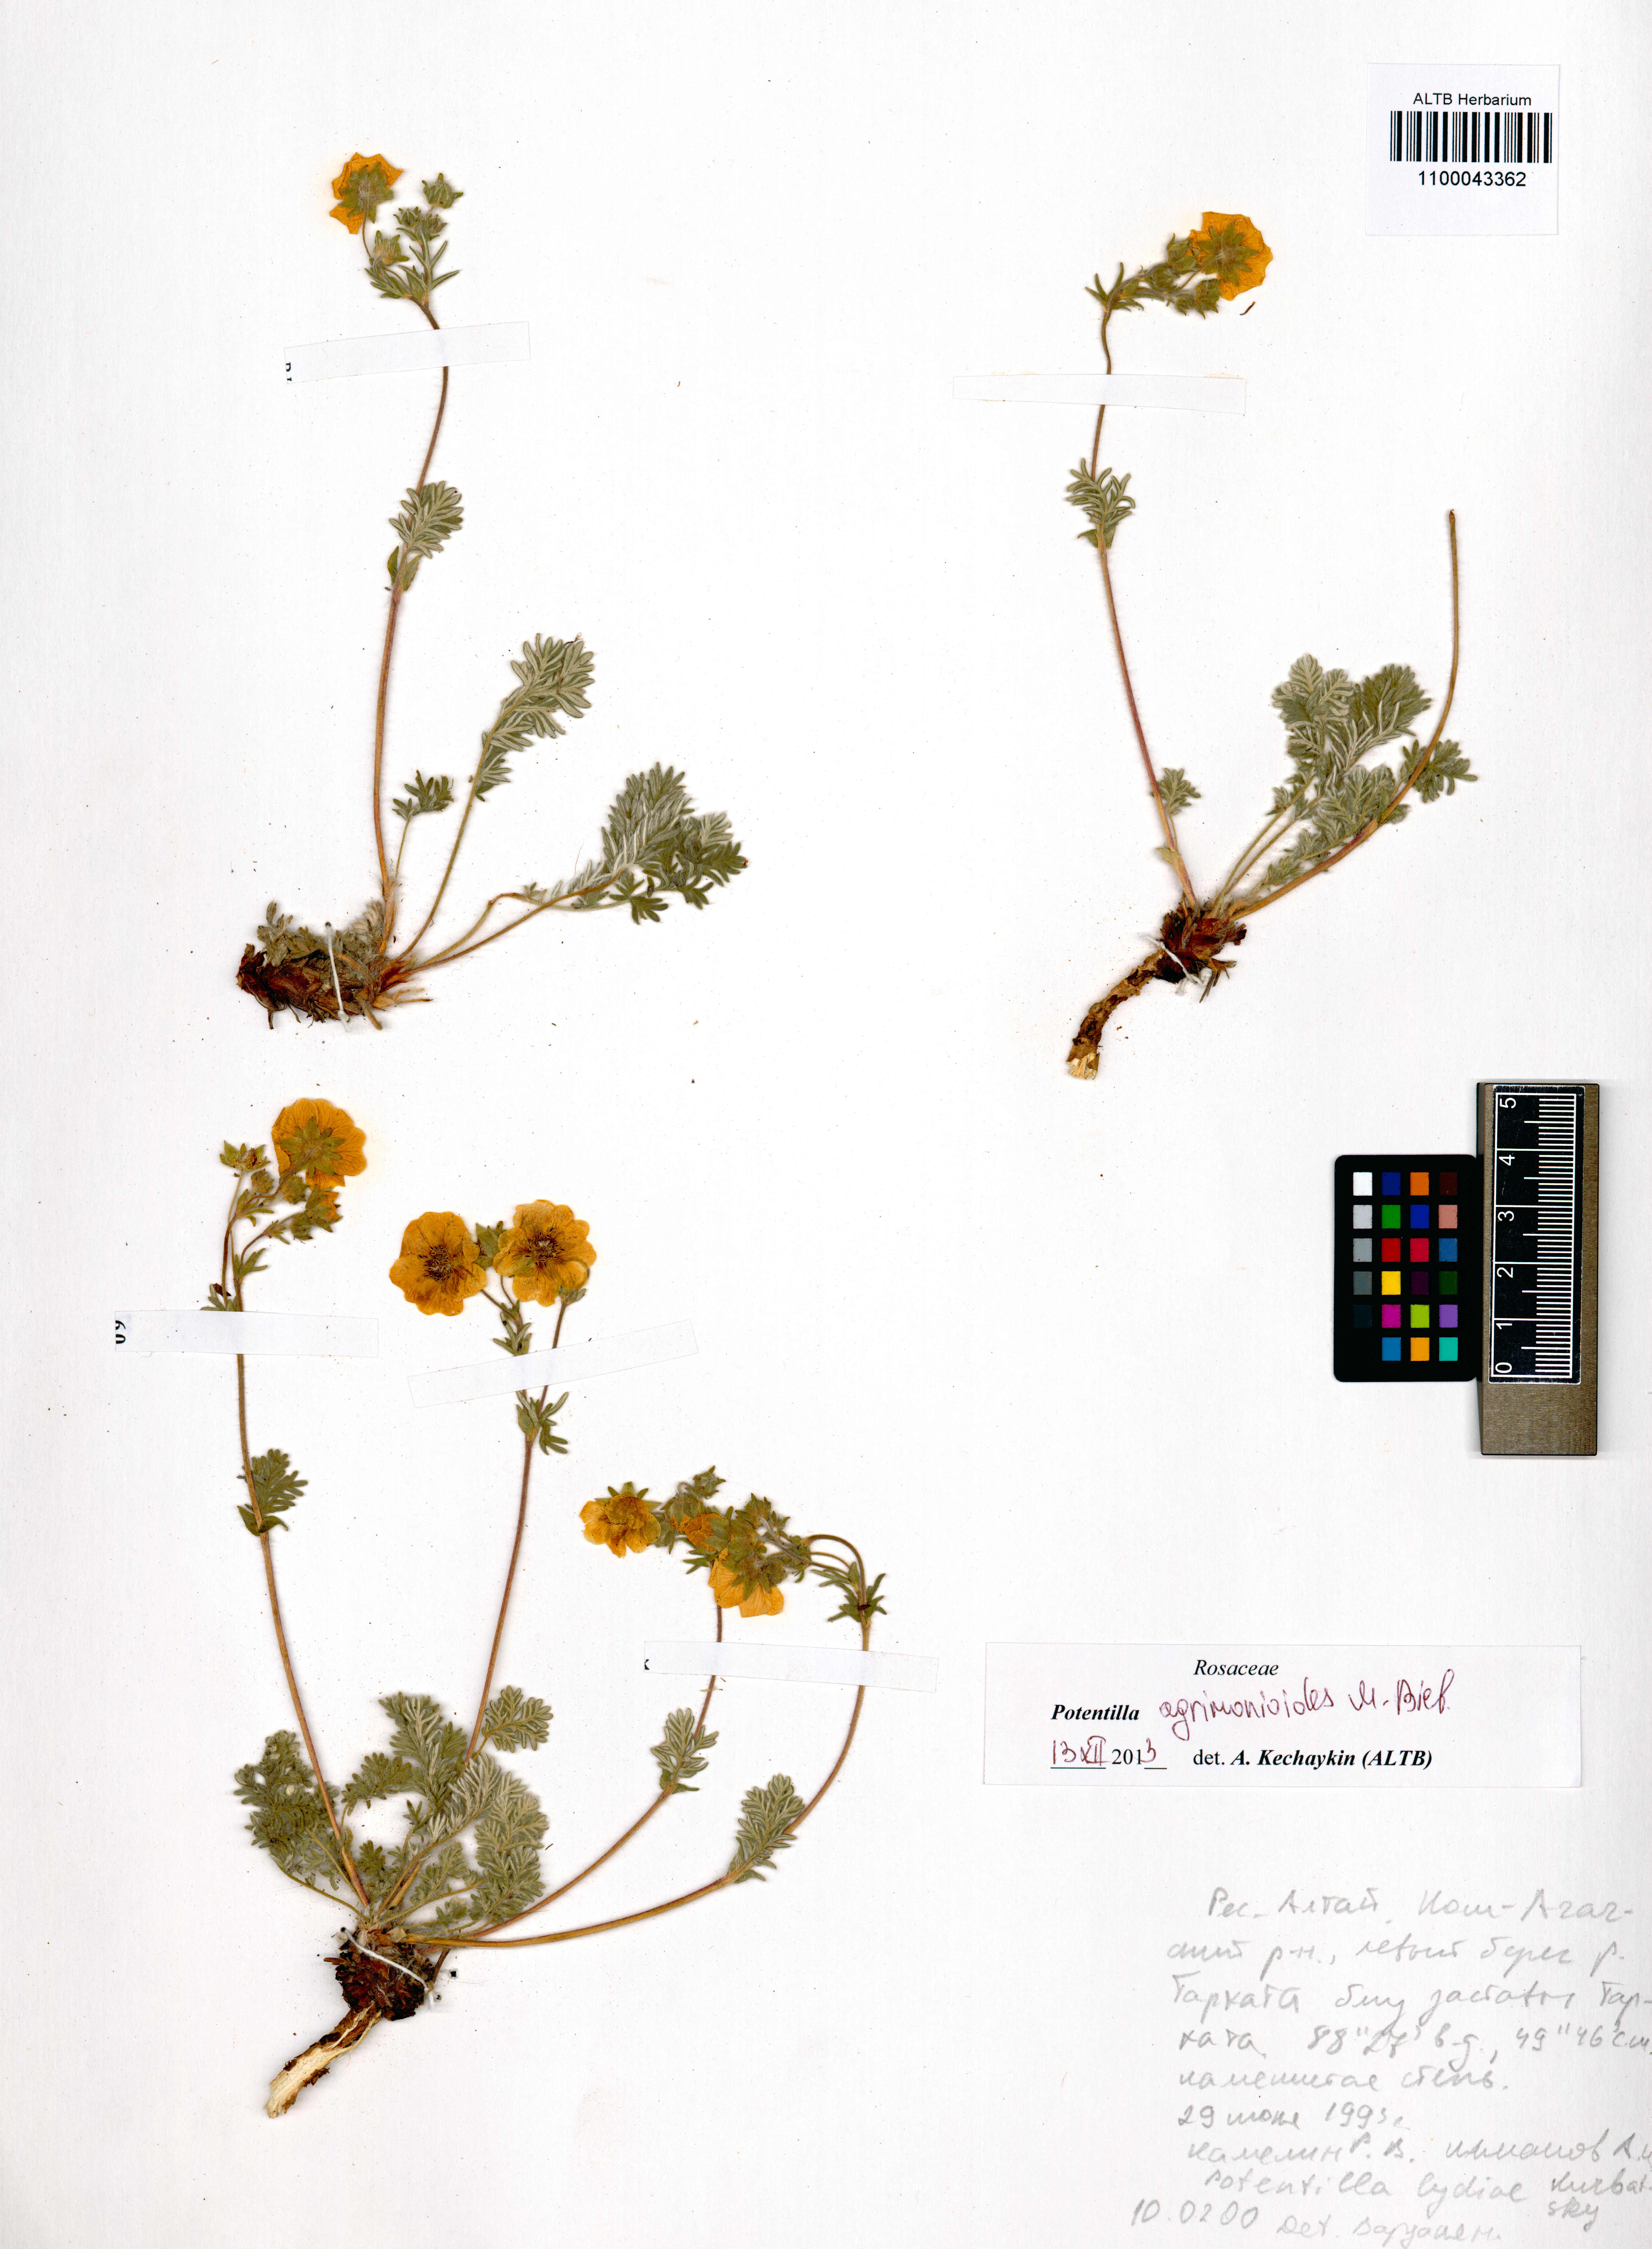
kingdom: Plantae
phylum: Tracheophyta
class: Magnoliopsida
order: Rosales
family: Rosaceae
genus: Potentilla
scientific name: Potentilla agrimonioides
